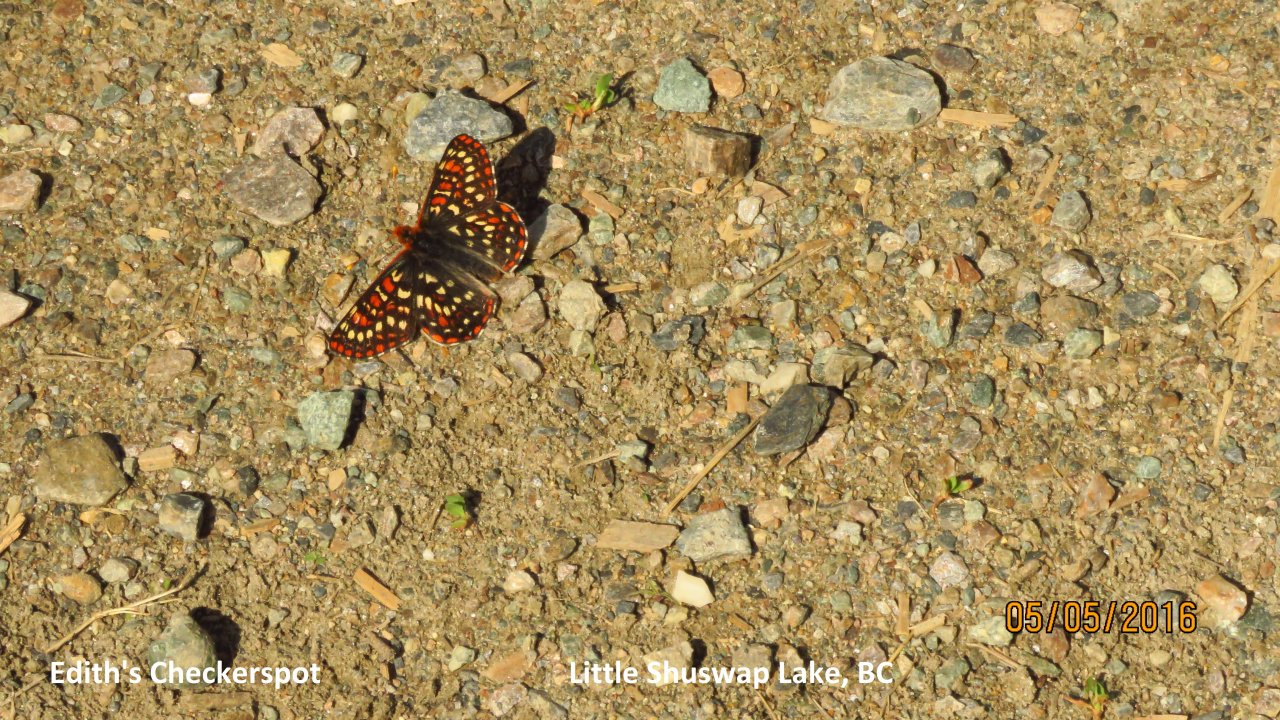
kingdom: Animalia
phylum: Arthropoda
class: Insecta
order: Lepidoptera
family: Nymphalidae
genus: Occidryas
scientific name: Occidryas editha
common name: Edith's Checkerspot
